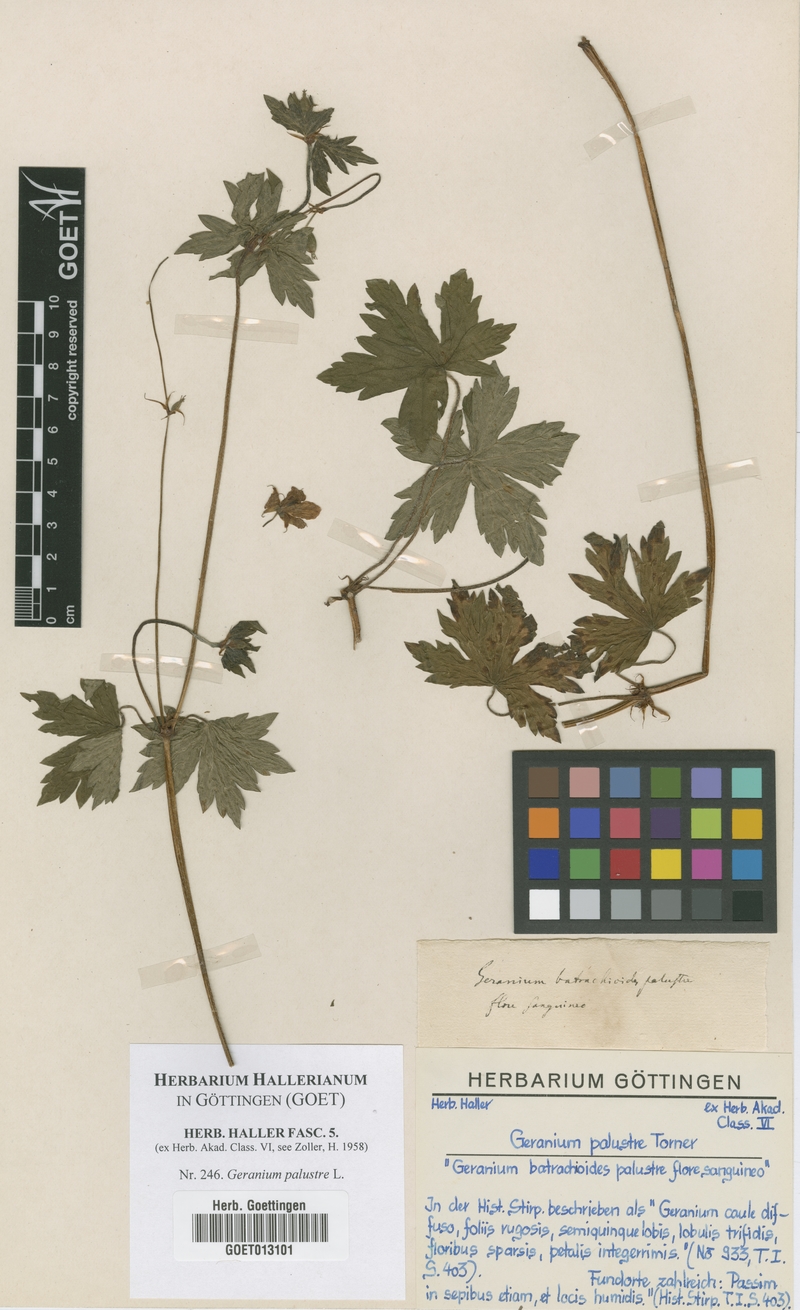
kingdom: Plantae
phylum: Tracheophyta
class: Magnoliopsida
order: Geraniales
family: Geraniaceae
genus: Geranium
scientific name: Geranium palustre
